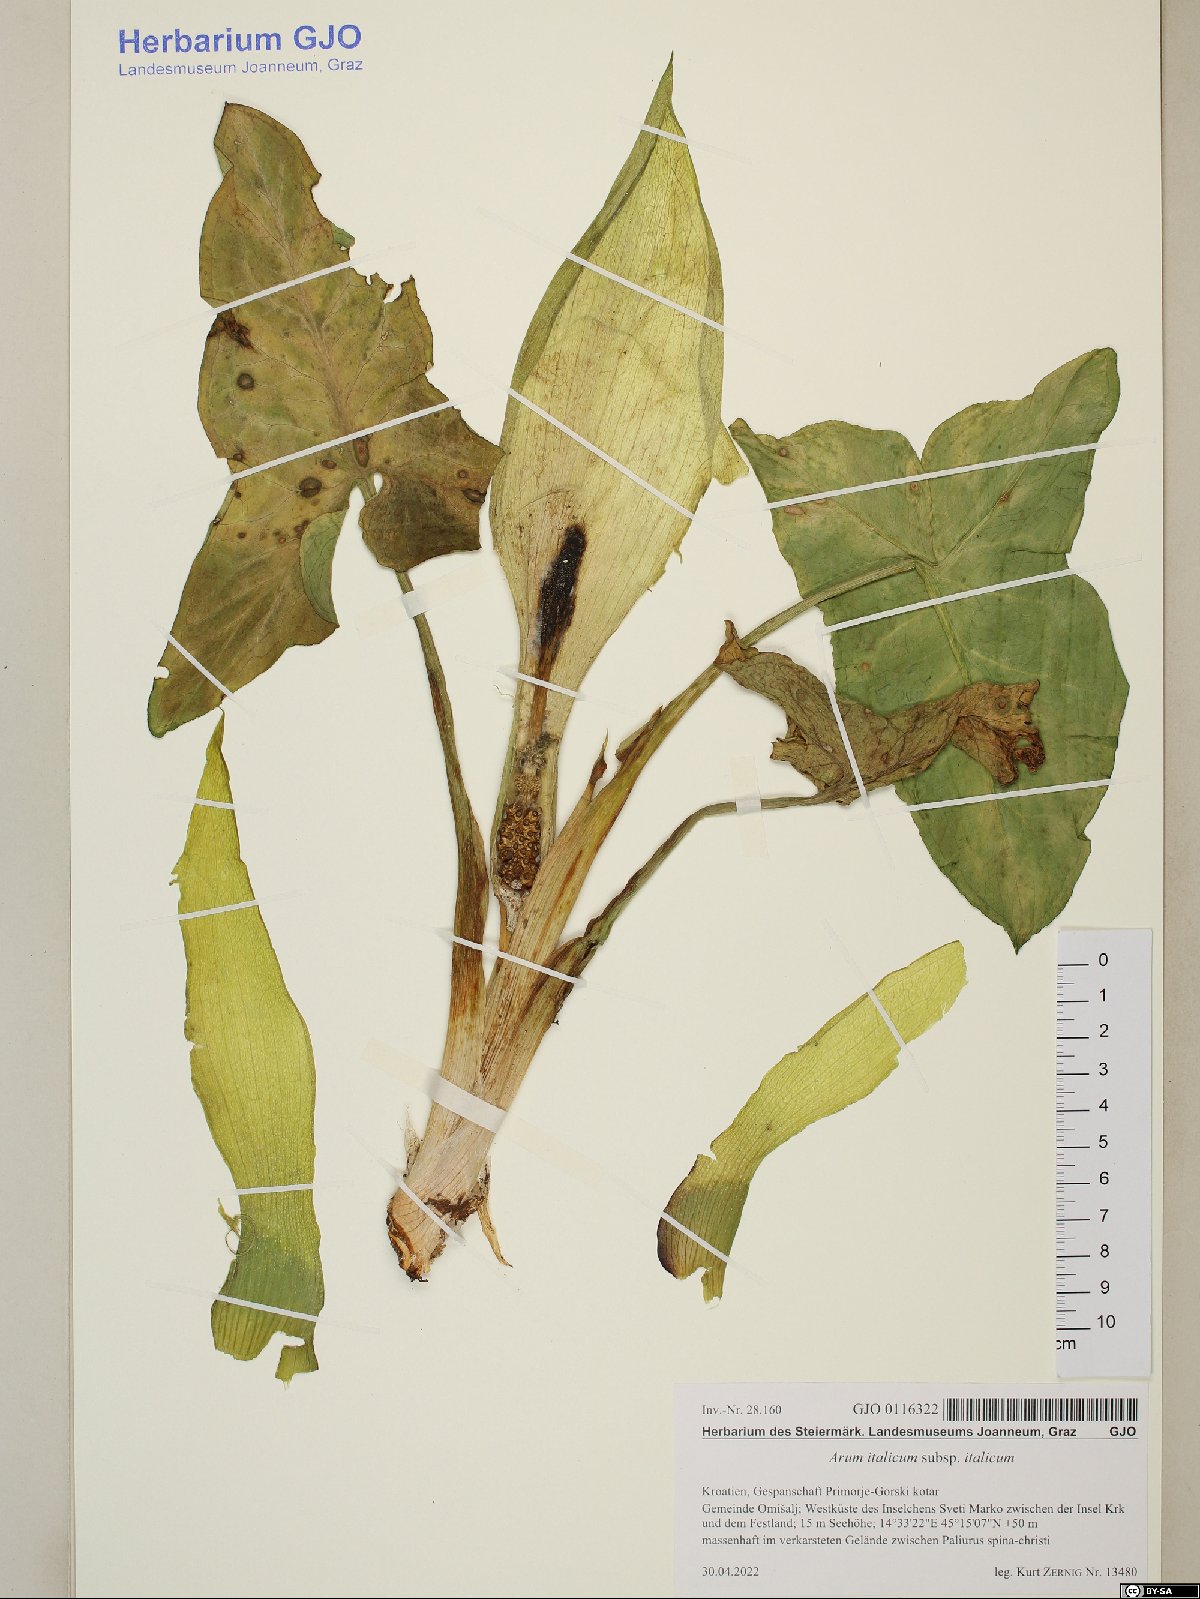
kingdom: Plantae
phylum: Tracheophyta
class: Liliopsida
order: Alismatales
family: Araceae
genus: Arum
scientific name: Arum italicum
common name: Italian lords-and-ladies
